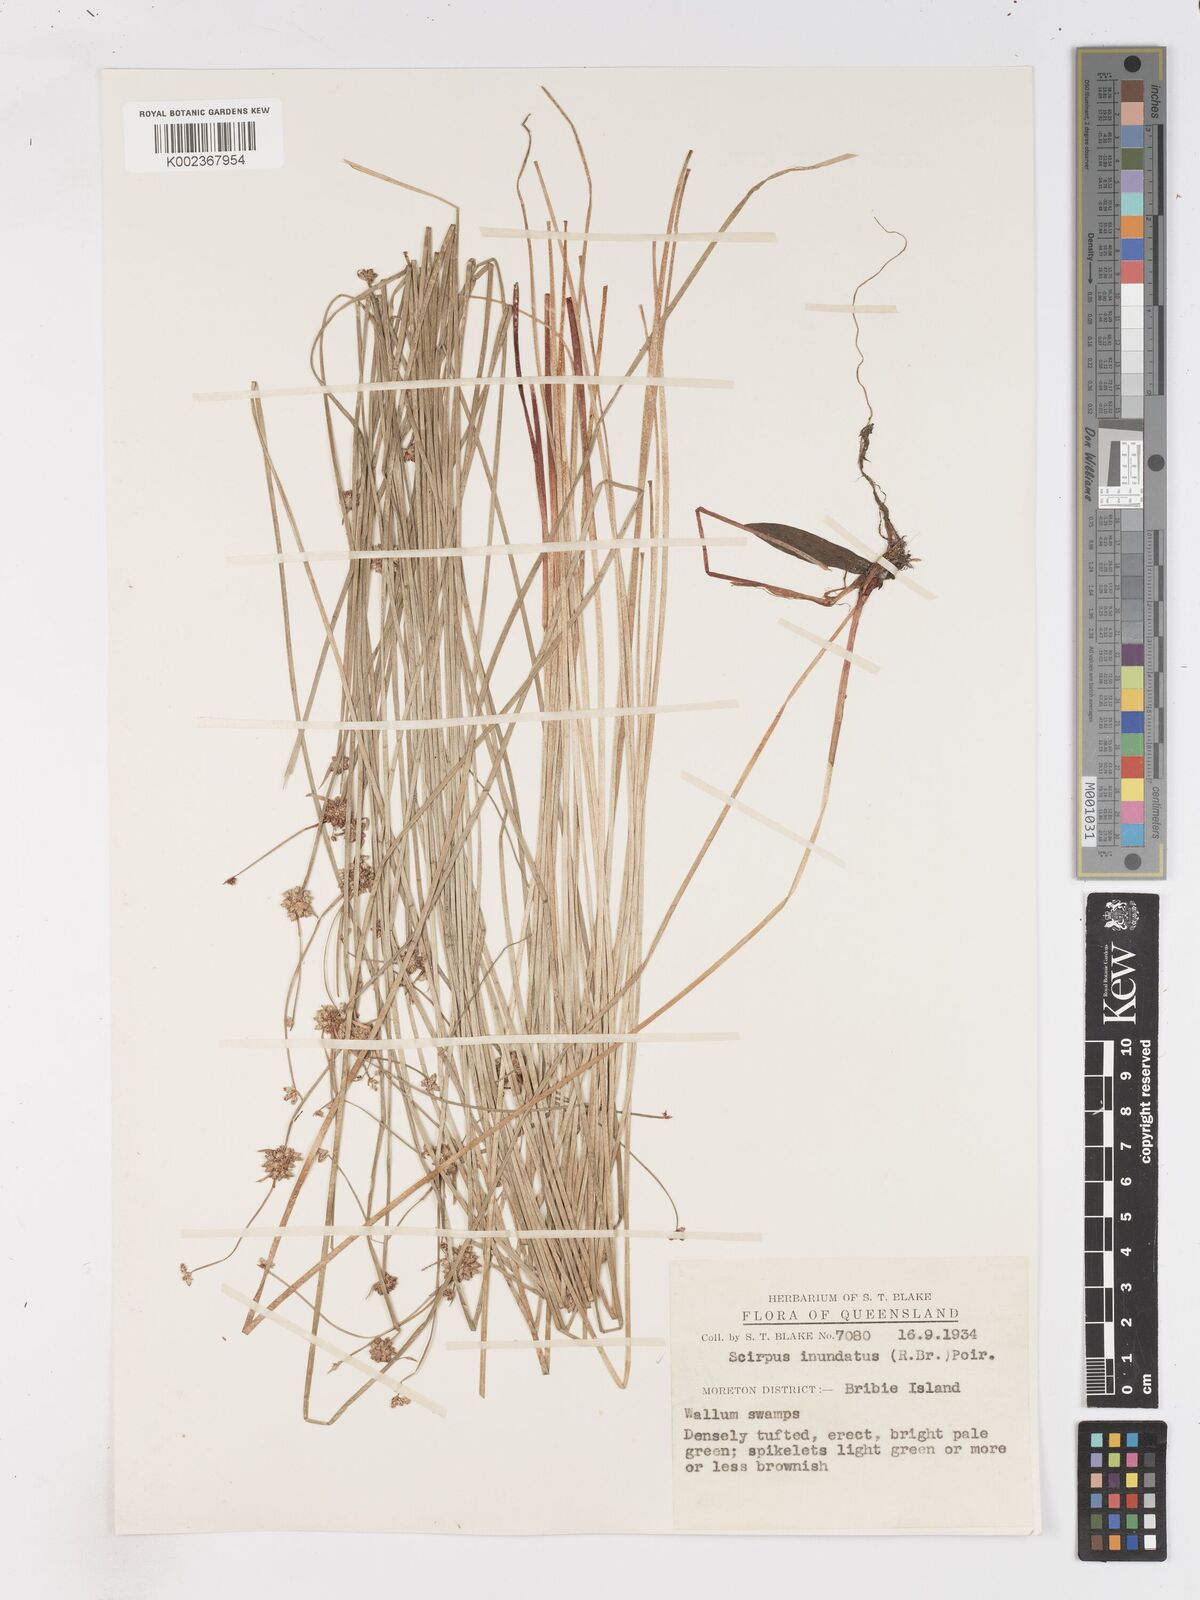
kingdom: Plantae
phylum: Tracheophyta
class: Liliopsida
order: Poales
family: Cyperaceae
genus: Isolepis
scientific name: Isolepis inundata
